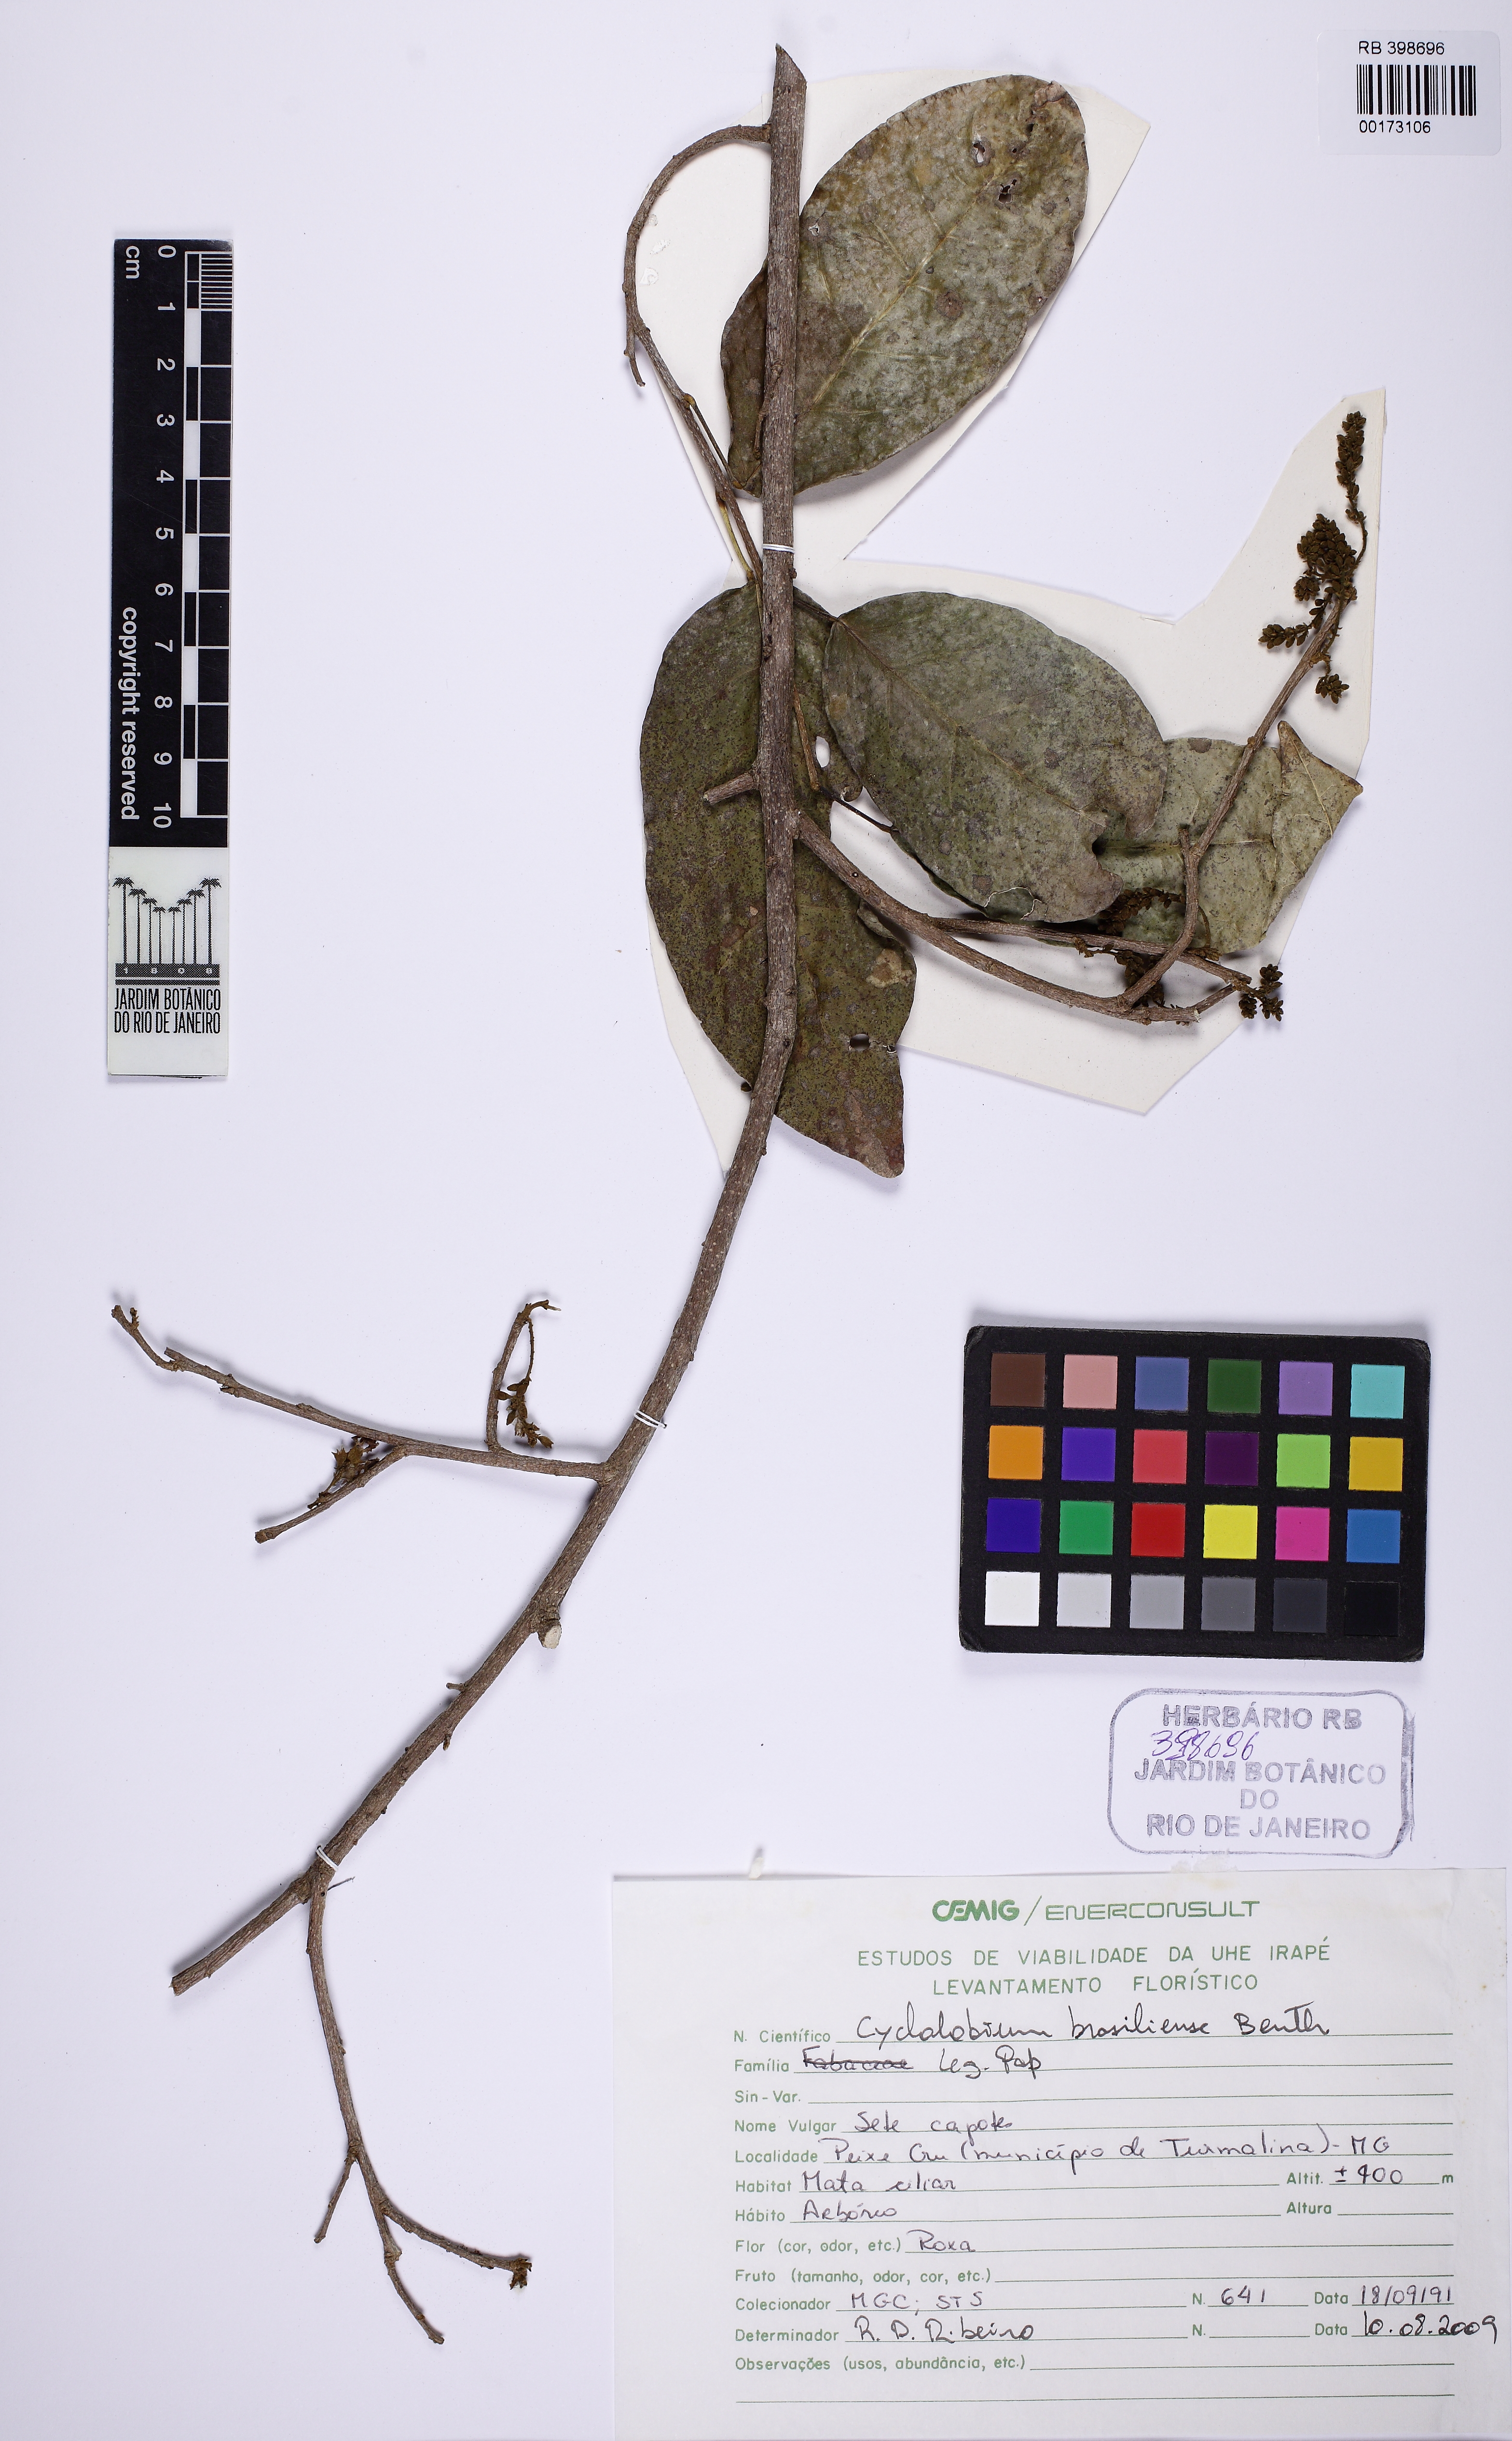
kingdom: Plantae
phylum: Tracheophyta
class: Magnoliopsida
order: Fabales
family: Fabaceae
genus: Cyclolobium
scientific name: Cyclolobium brasiliense
